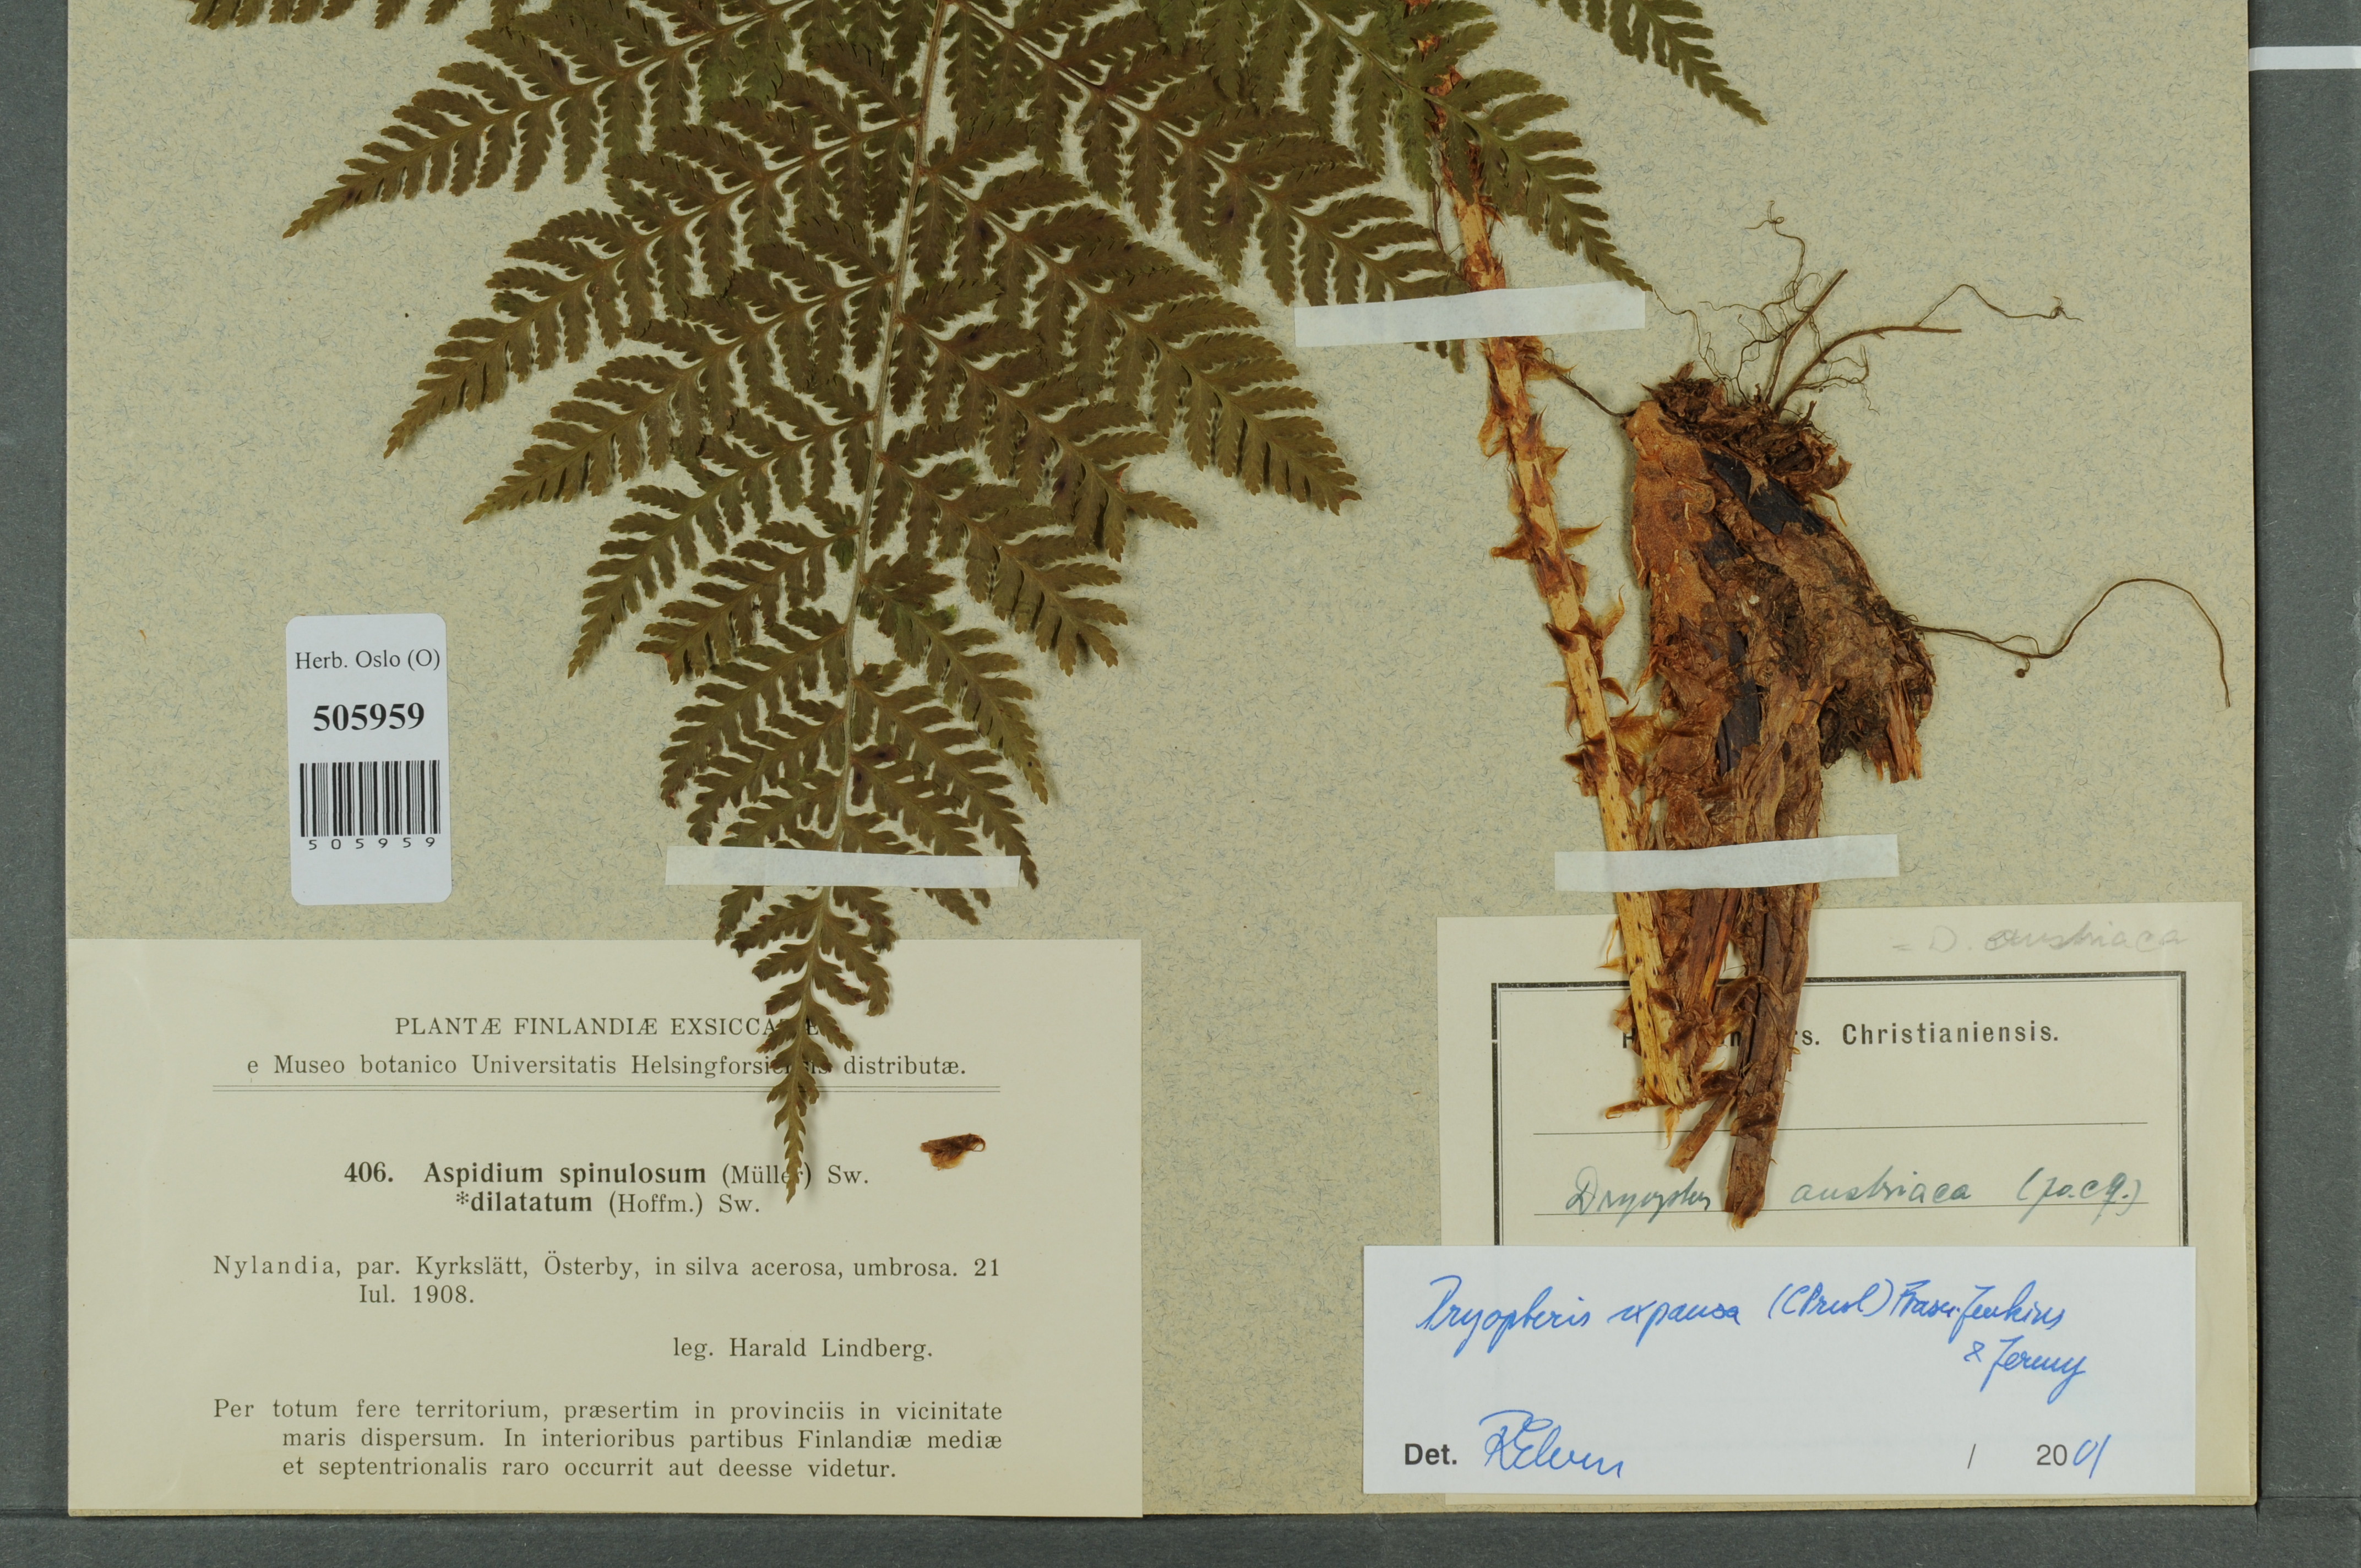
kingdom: Plantae
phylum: Tracheophyta
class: Polypodiopsida
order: Polypodiales
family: Dryopteridaceae
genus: Dryopteris
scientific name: Dryopteris expansa
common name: Northern buckler fern
